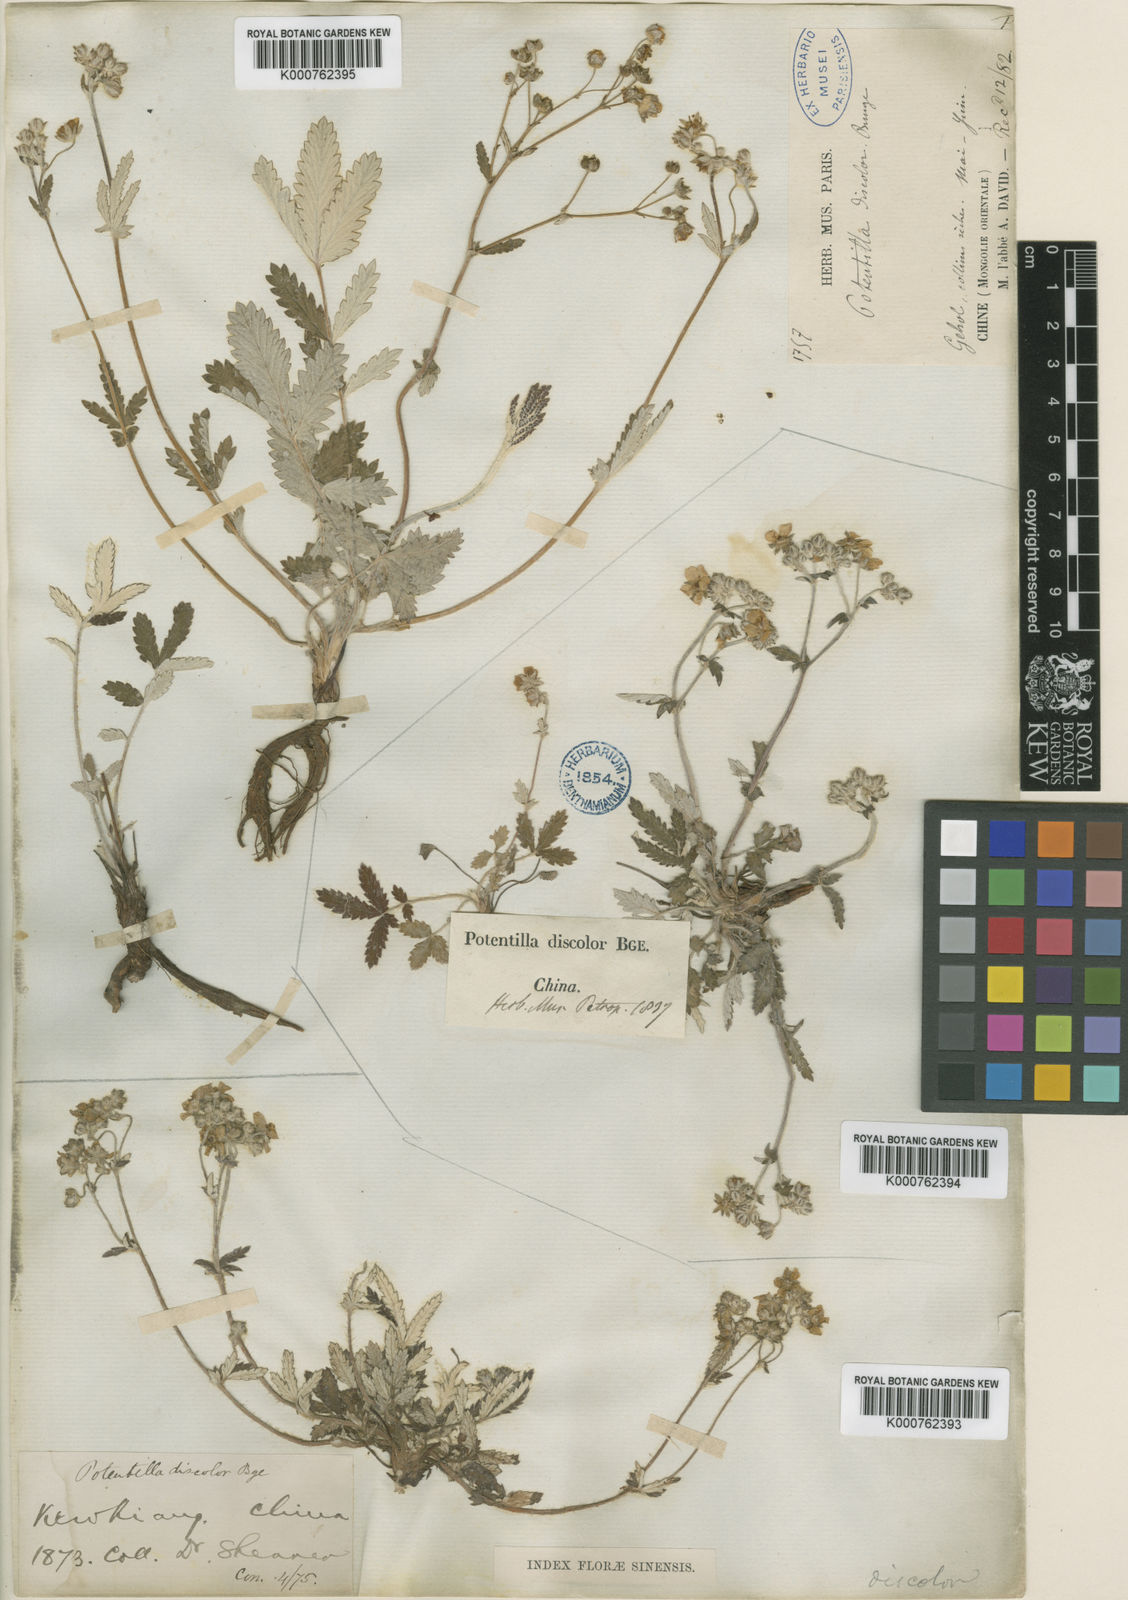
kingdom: Plantae
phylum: Tracheophyta
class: Magnoliopsida
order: Rosales
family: Rosaceae
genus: Potentilla
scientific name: Potentilla discolor
